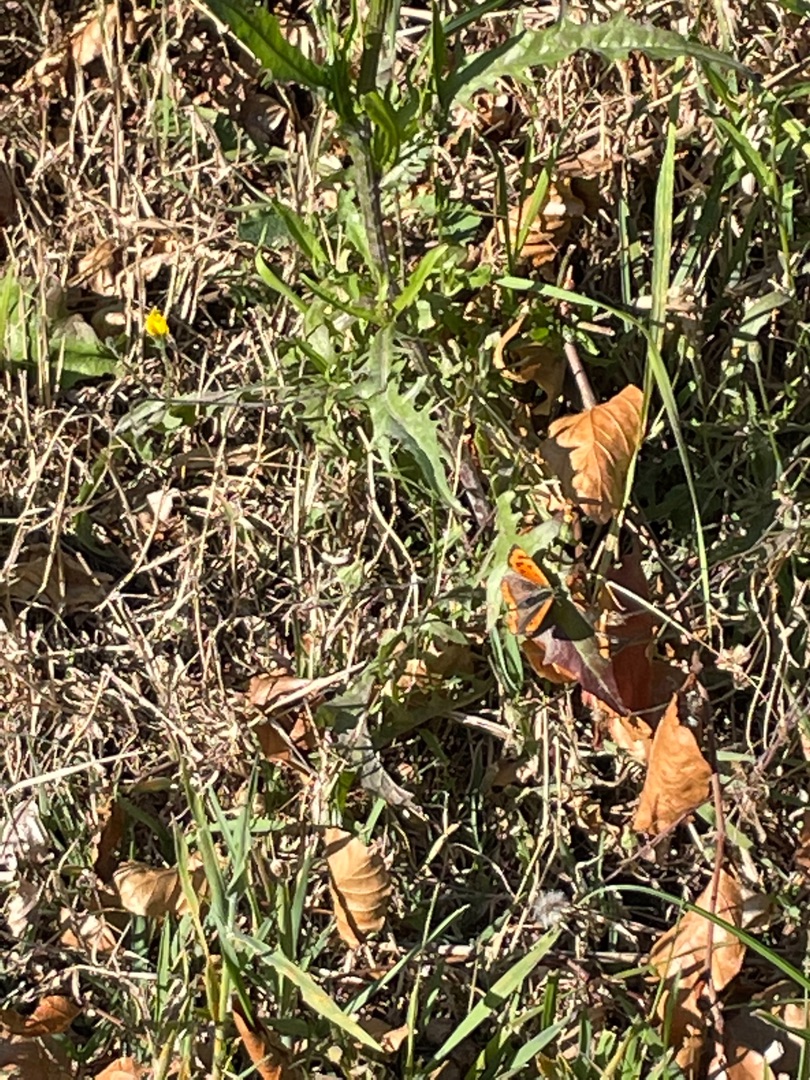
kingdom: Animalia
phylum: Arthropoda
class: Insecta
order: Lepidoptera
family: Lycaenidae
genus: Lycaena
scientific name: Lycaena phlaeas
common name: Lille ildfugl
